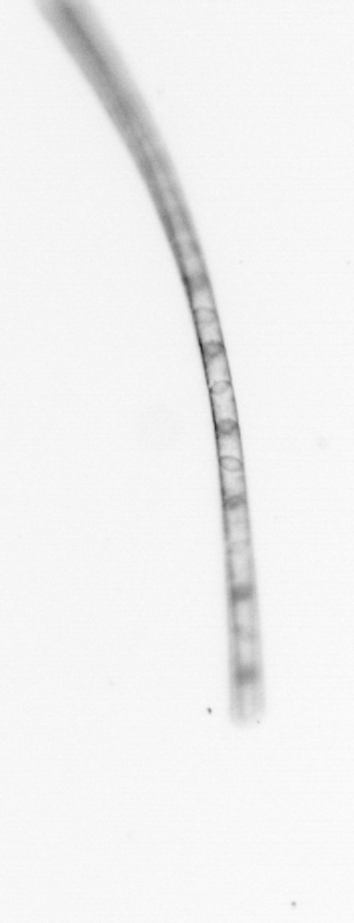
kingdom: Chromista
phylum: Ochrophyta
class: Bacillariophyceae
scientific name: Bacillariophyceae
